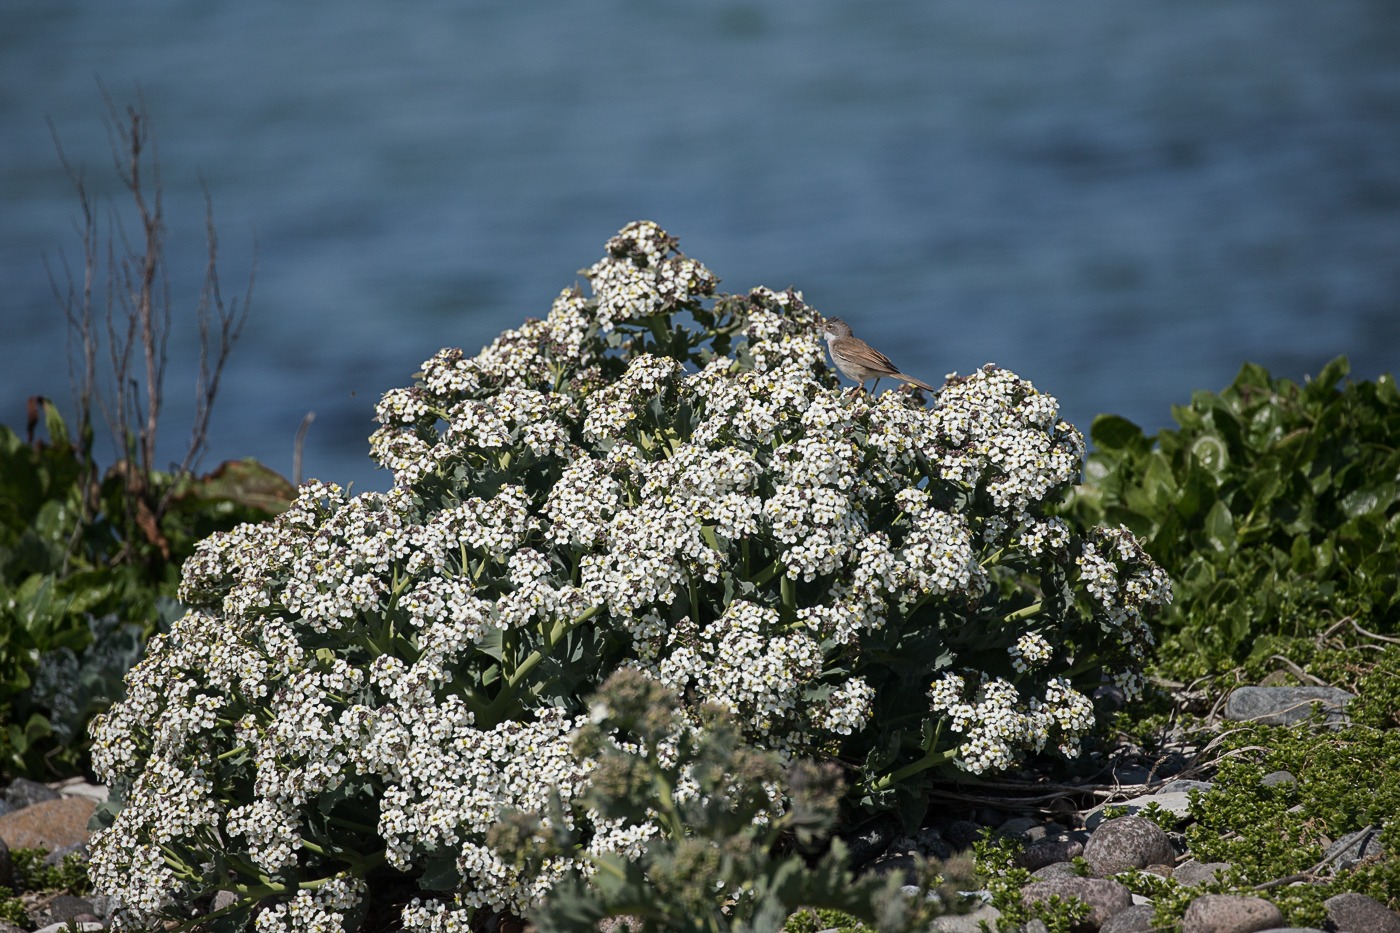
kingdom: Plantae
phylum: Tracheophyta
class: Magnoliopsida
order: Brassicales
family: Brassicaceae
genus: Crambe
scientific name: Crambe maritima
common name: Strandkål
